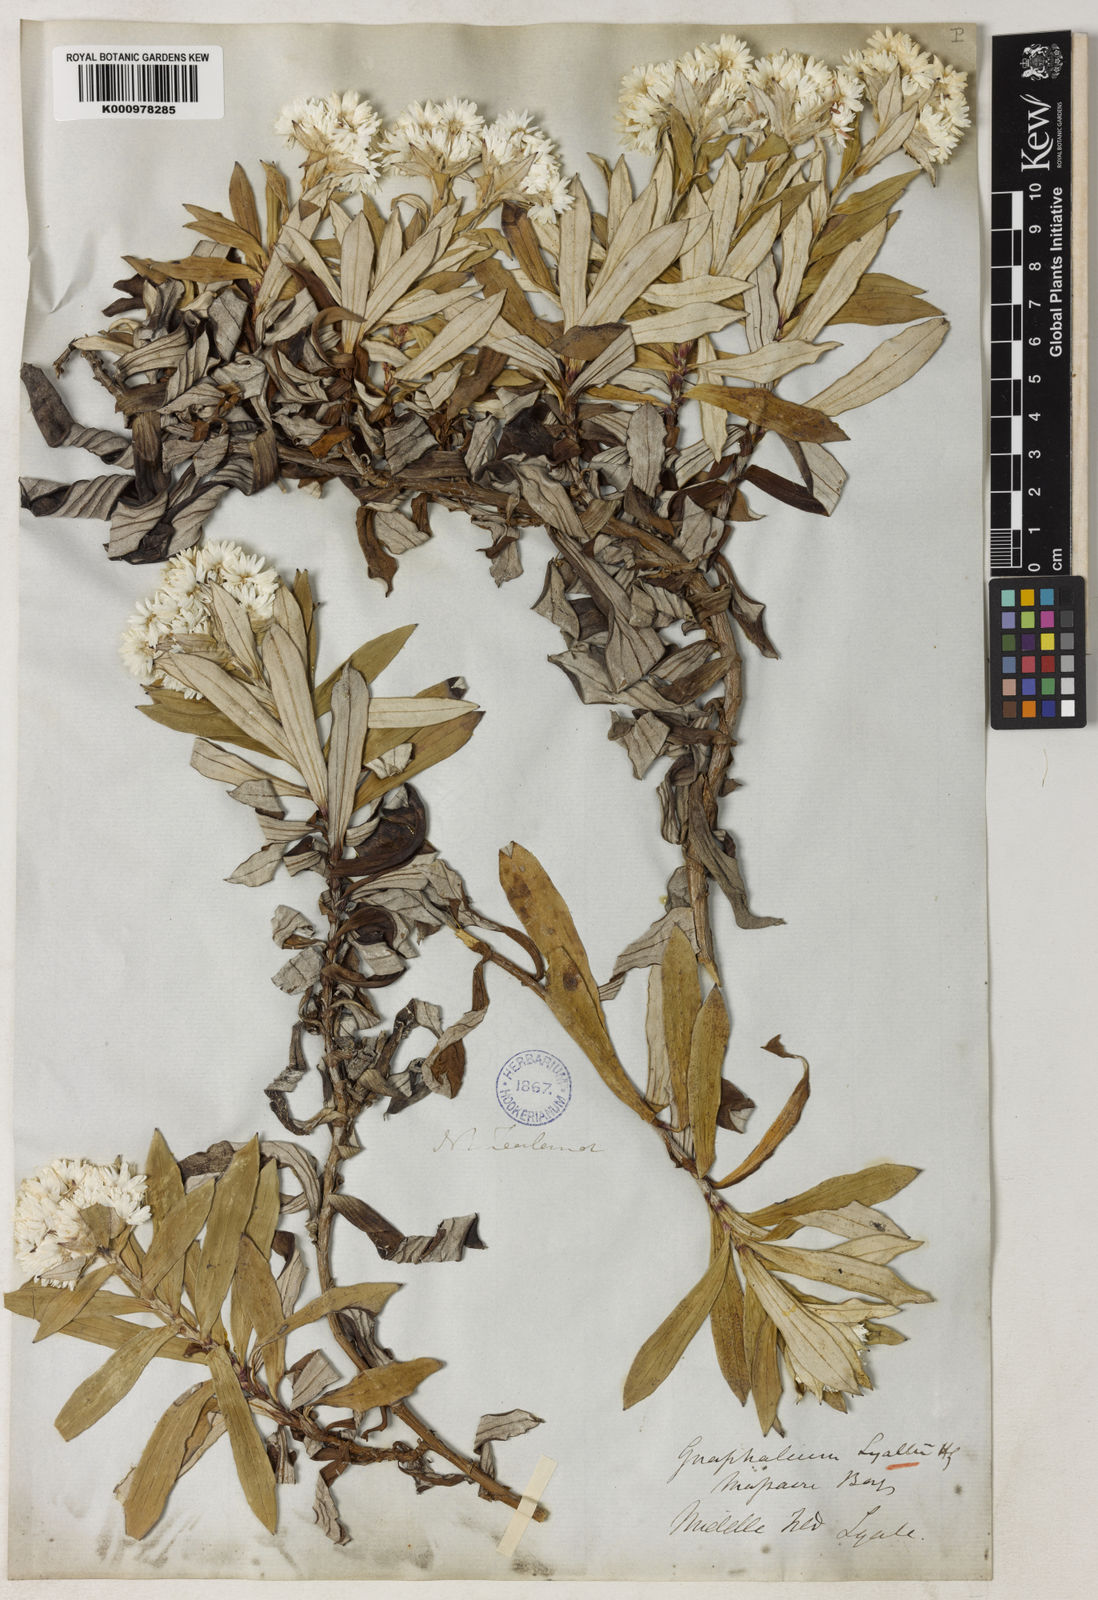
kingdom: Plantae
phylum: Tracheophyta
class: Magnoliopsida
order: Asterales
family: Asteraceae
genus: Anaphalioides
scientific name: Anaphalioides trinervis
